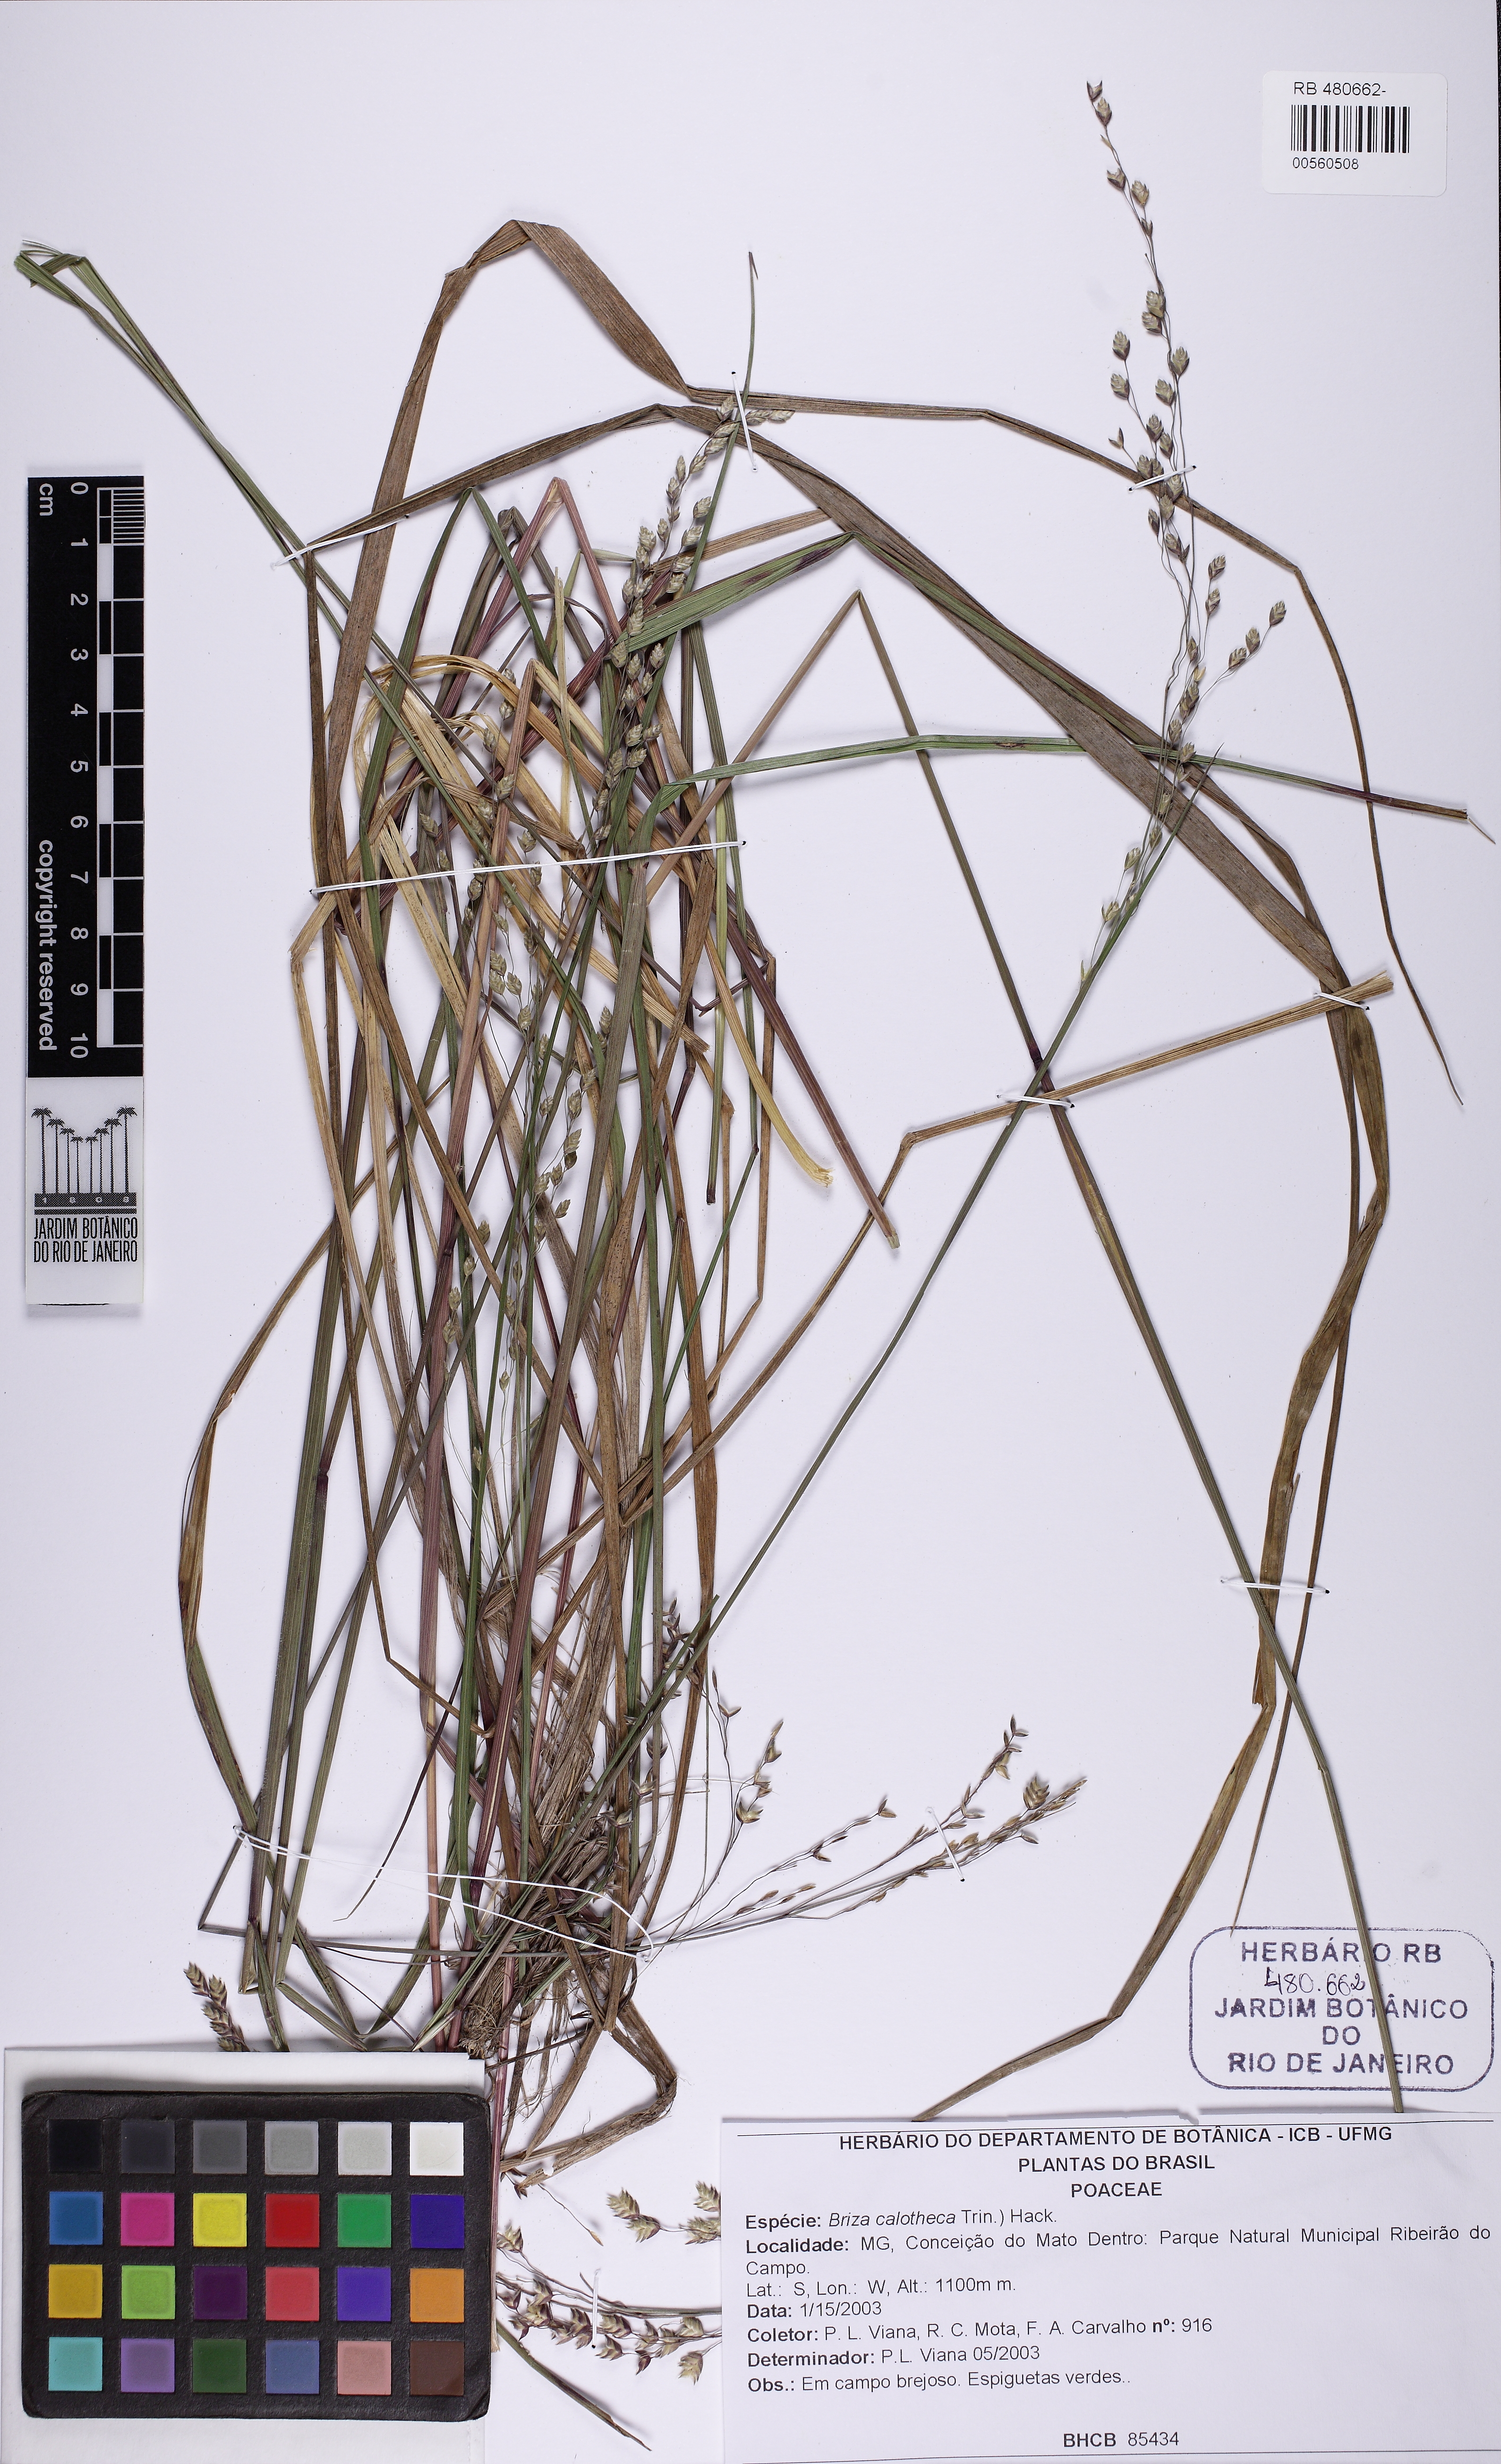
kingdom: Plantae
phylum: Tracheophyta
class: Liliopsida
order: Poales
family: Poaceae
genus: Poidium
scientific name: Poidium calotheca
